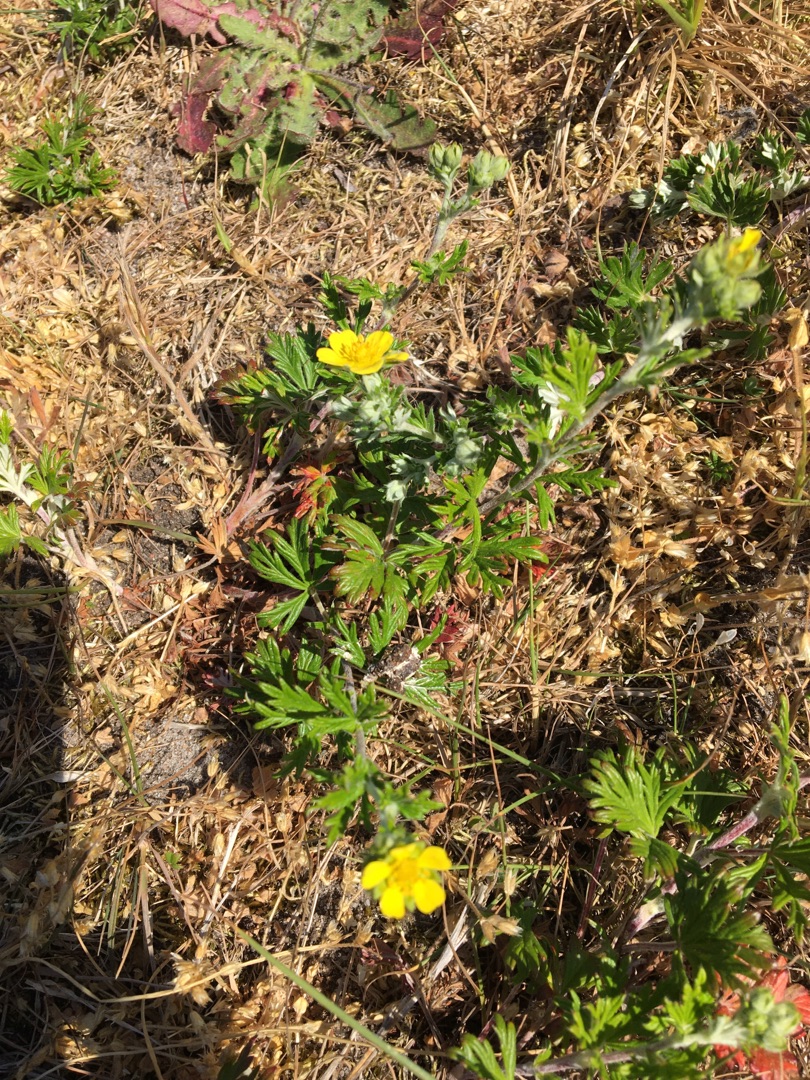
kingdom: Plantae
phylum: Tracheophyta
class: Magnoliopsida
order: Rosales
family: Rosaceae
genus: Potentilla
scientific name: Potentilla argentea
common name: Sølv-potentil
